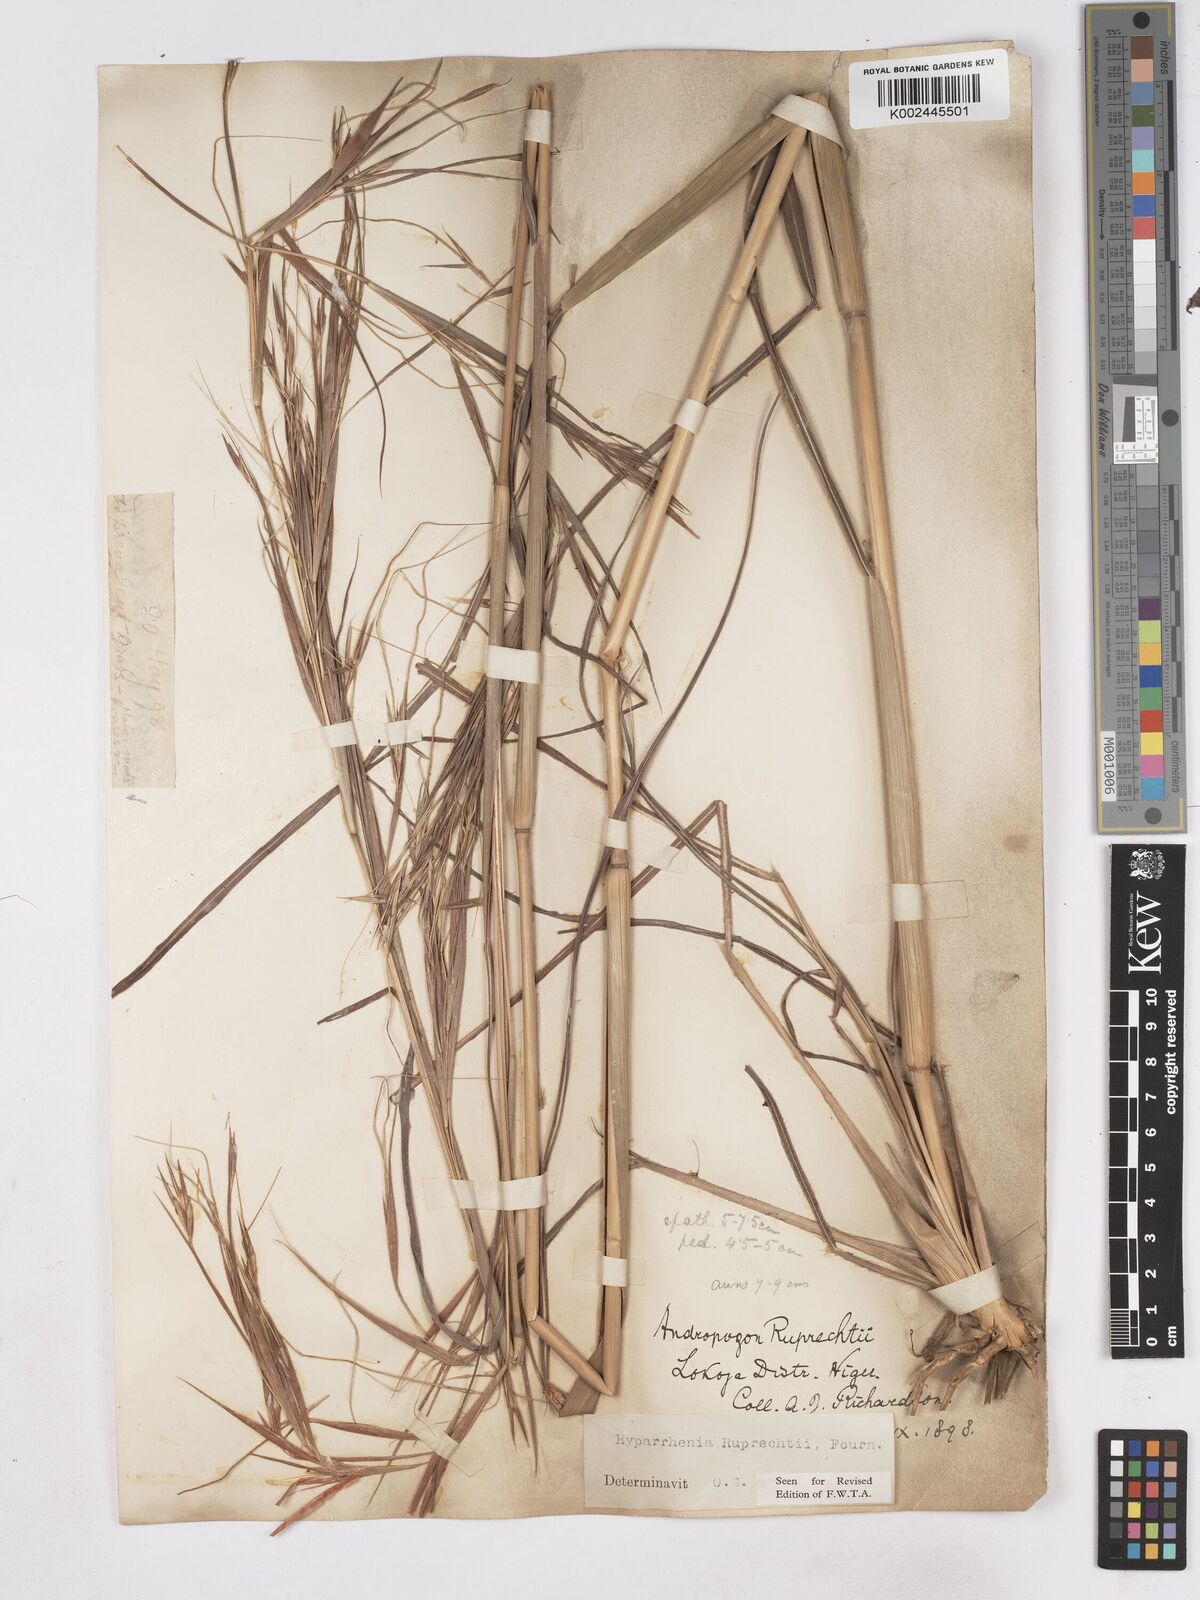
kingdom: Plantae
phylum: Tracheophyta
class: Liliopsida
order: Poales
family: Poaceae
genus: Hyperthelia
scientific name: Hyperthelia dissoluta
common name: Yellow thatching grass
